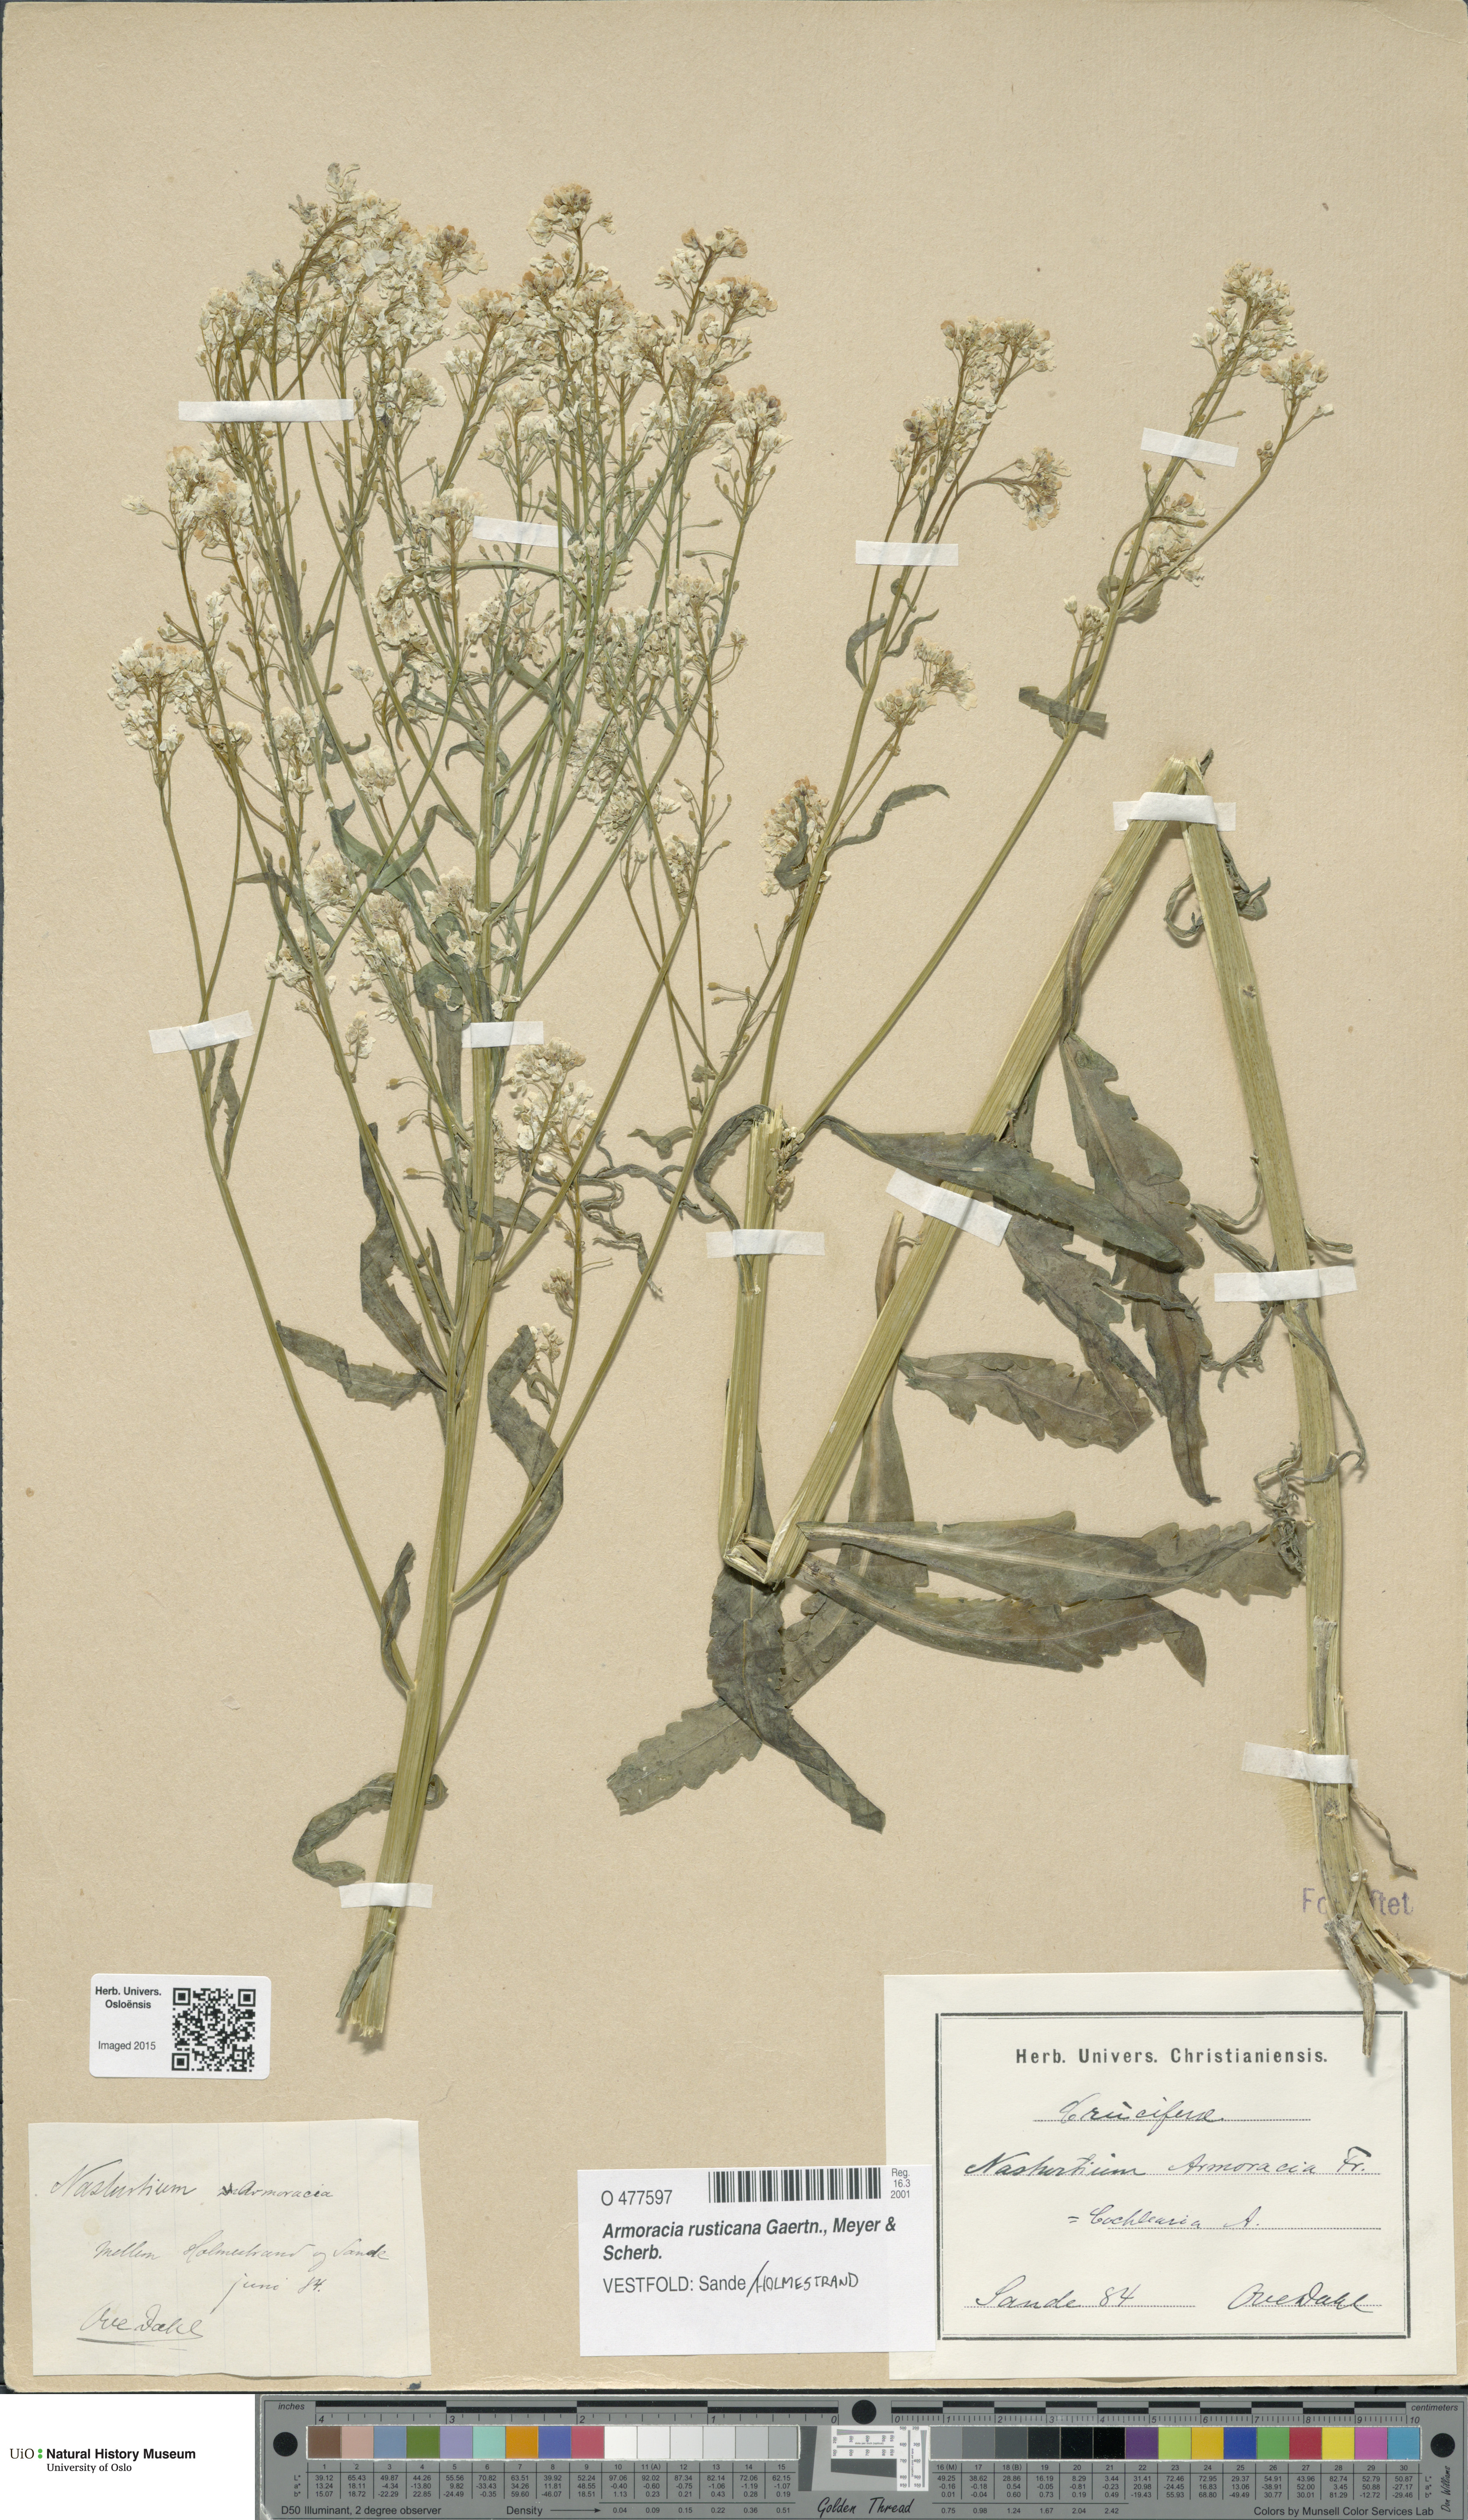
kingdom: Plantae
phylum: Tracheophyta
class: Magnoliopsida
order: Brassicales
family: Brassicaceae
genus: Armoracia
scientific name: Armoracia rusticana
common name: Horseradish
